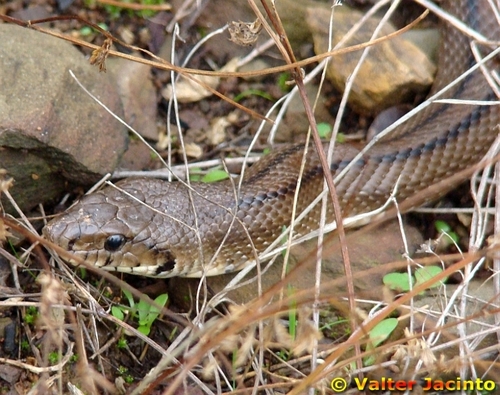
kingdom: Animalia
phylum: Chordata
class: Squamata
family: Colubridae
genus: Zamenis
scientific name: Zamenis scalaris
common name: Ladder snakes
